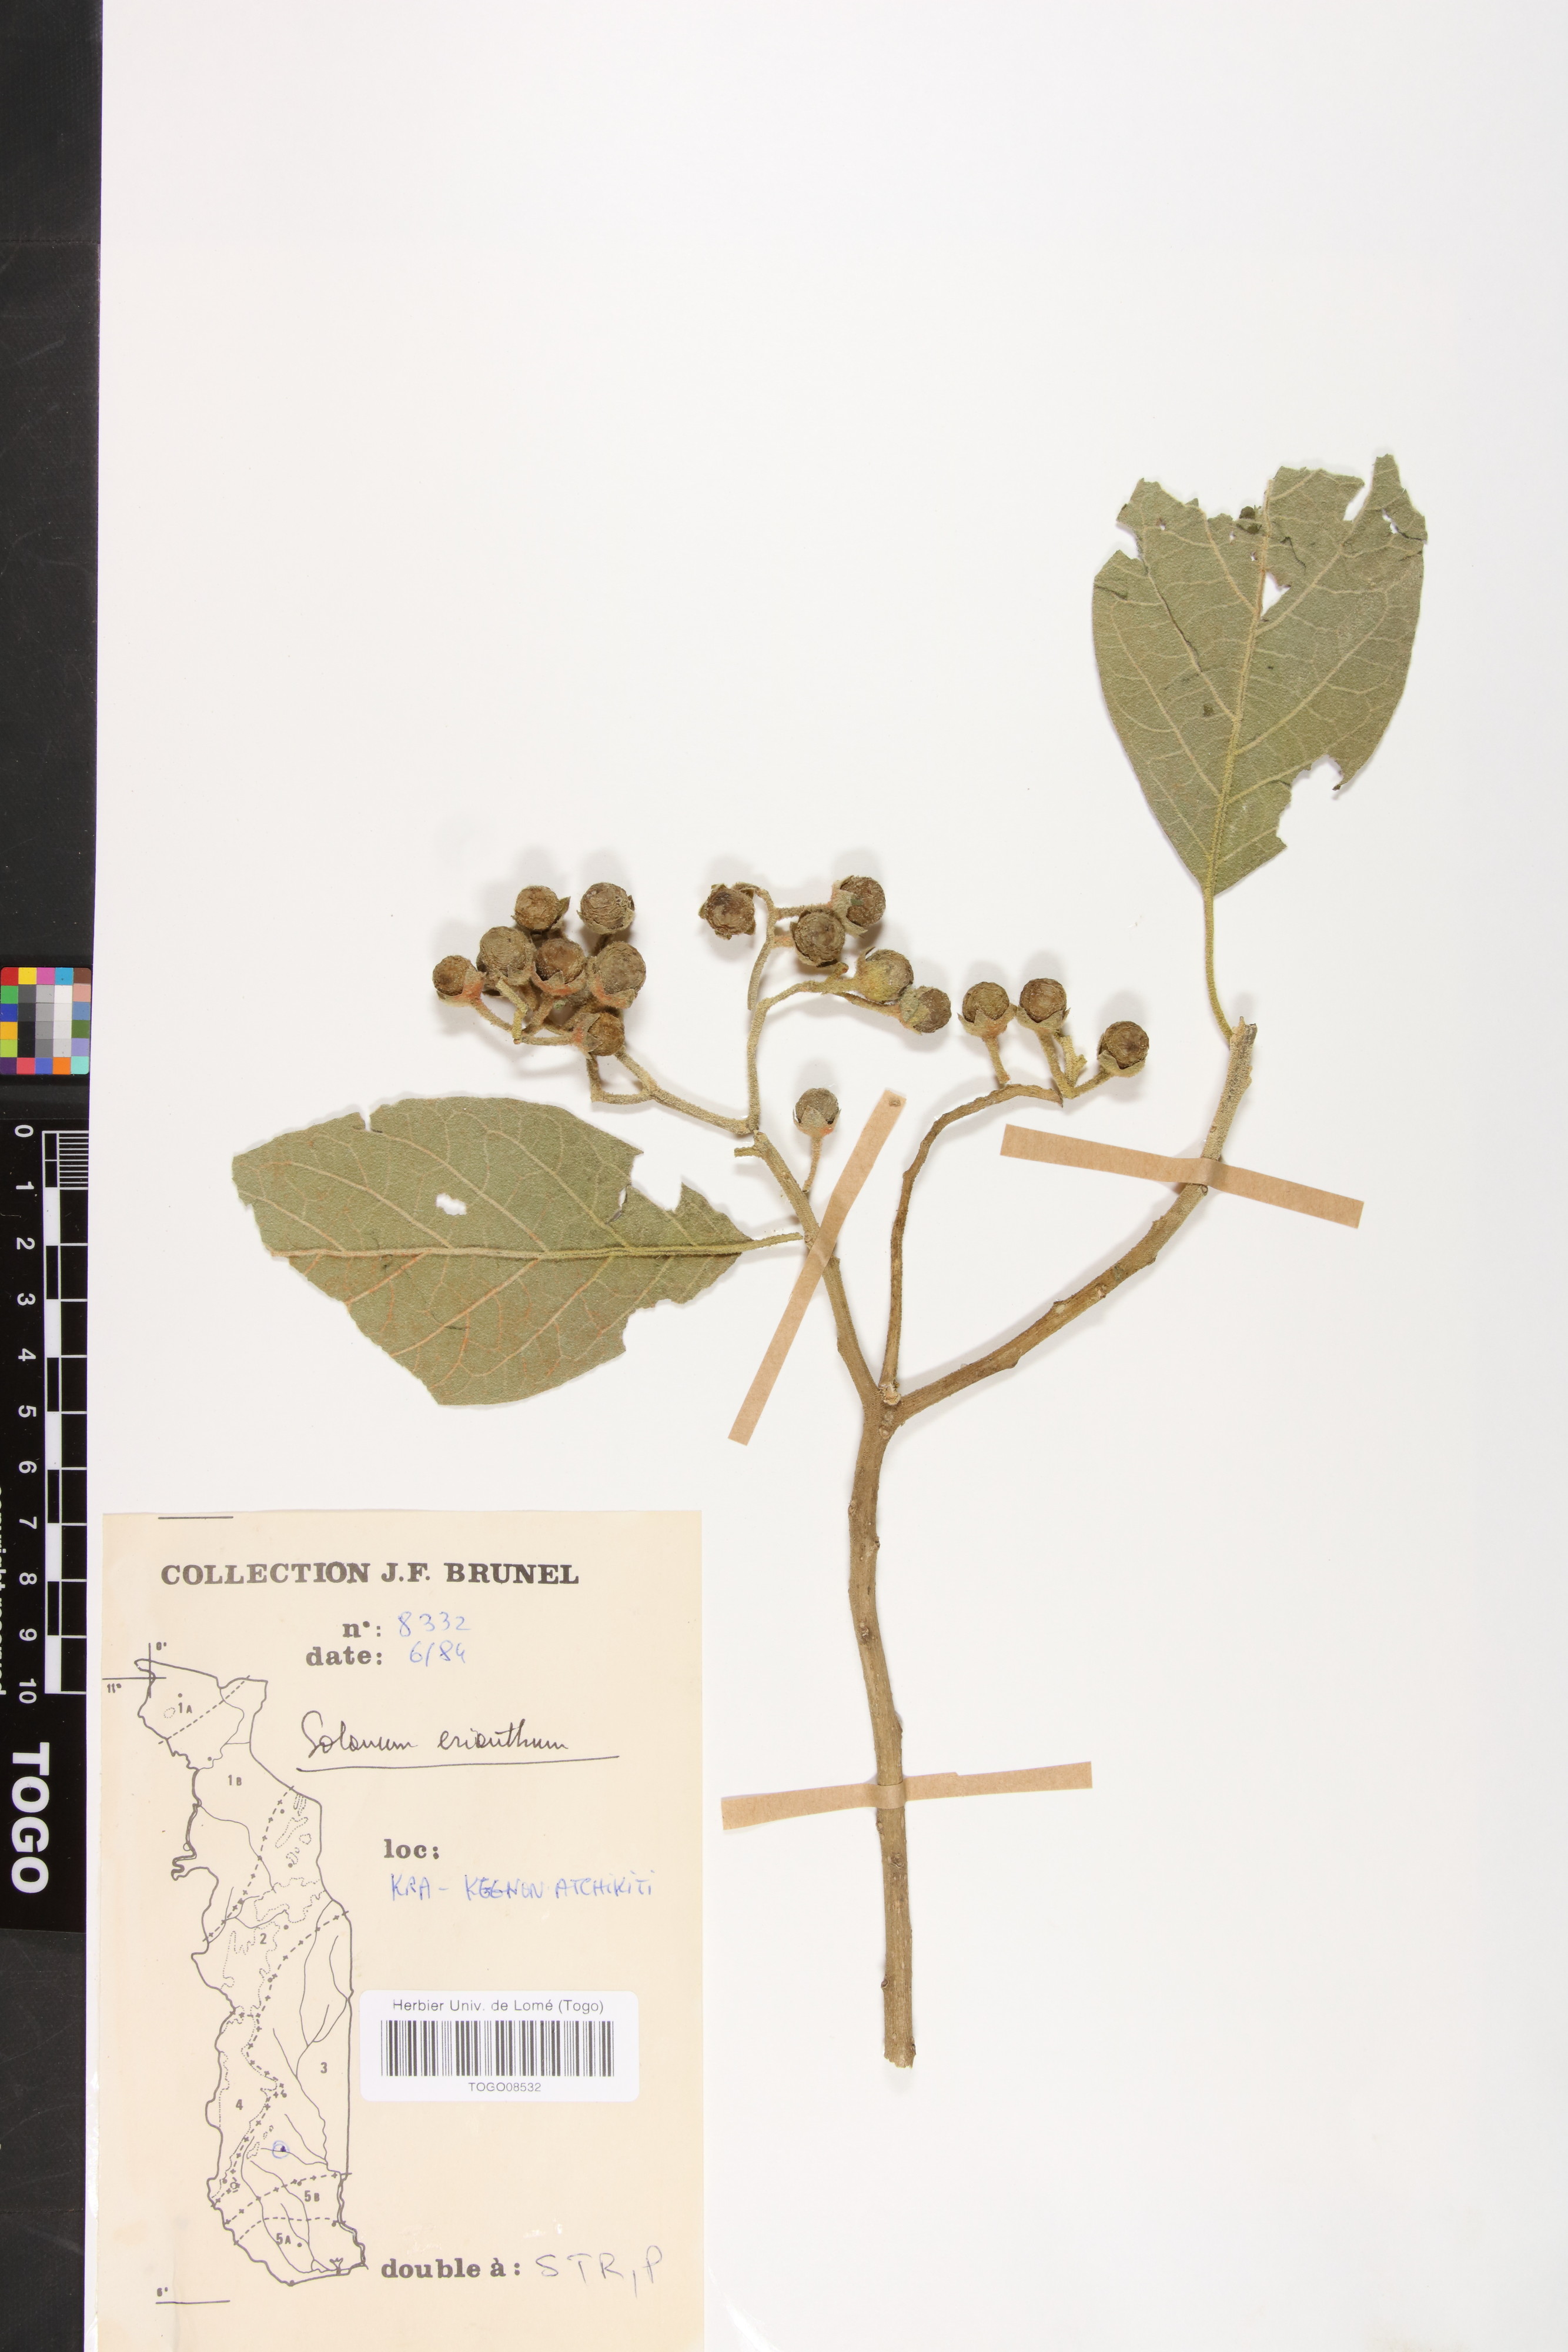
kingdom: Plantae
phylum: Tracheophyta
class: Magnoliopsida
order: Solanales
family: Solanaceae
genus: Solanum
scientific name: Solanum erianthum
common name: Tobacco-tree
